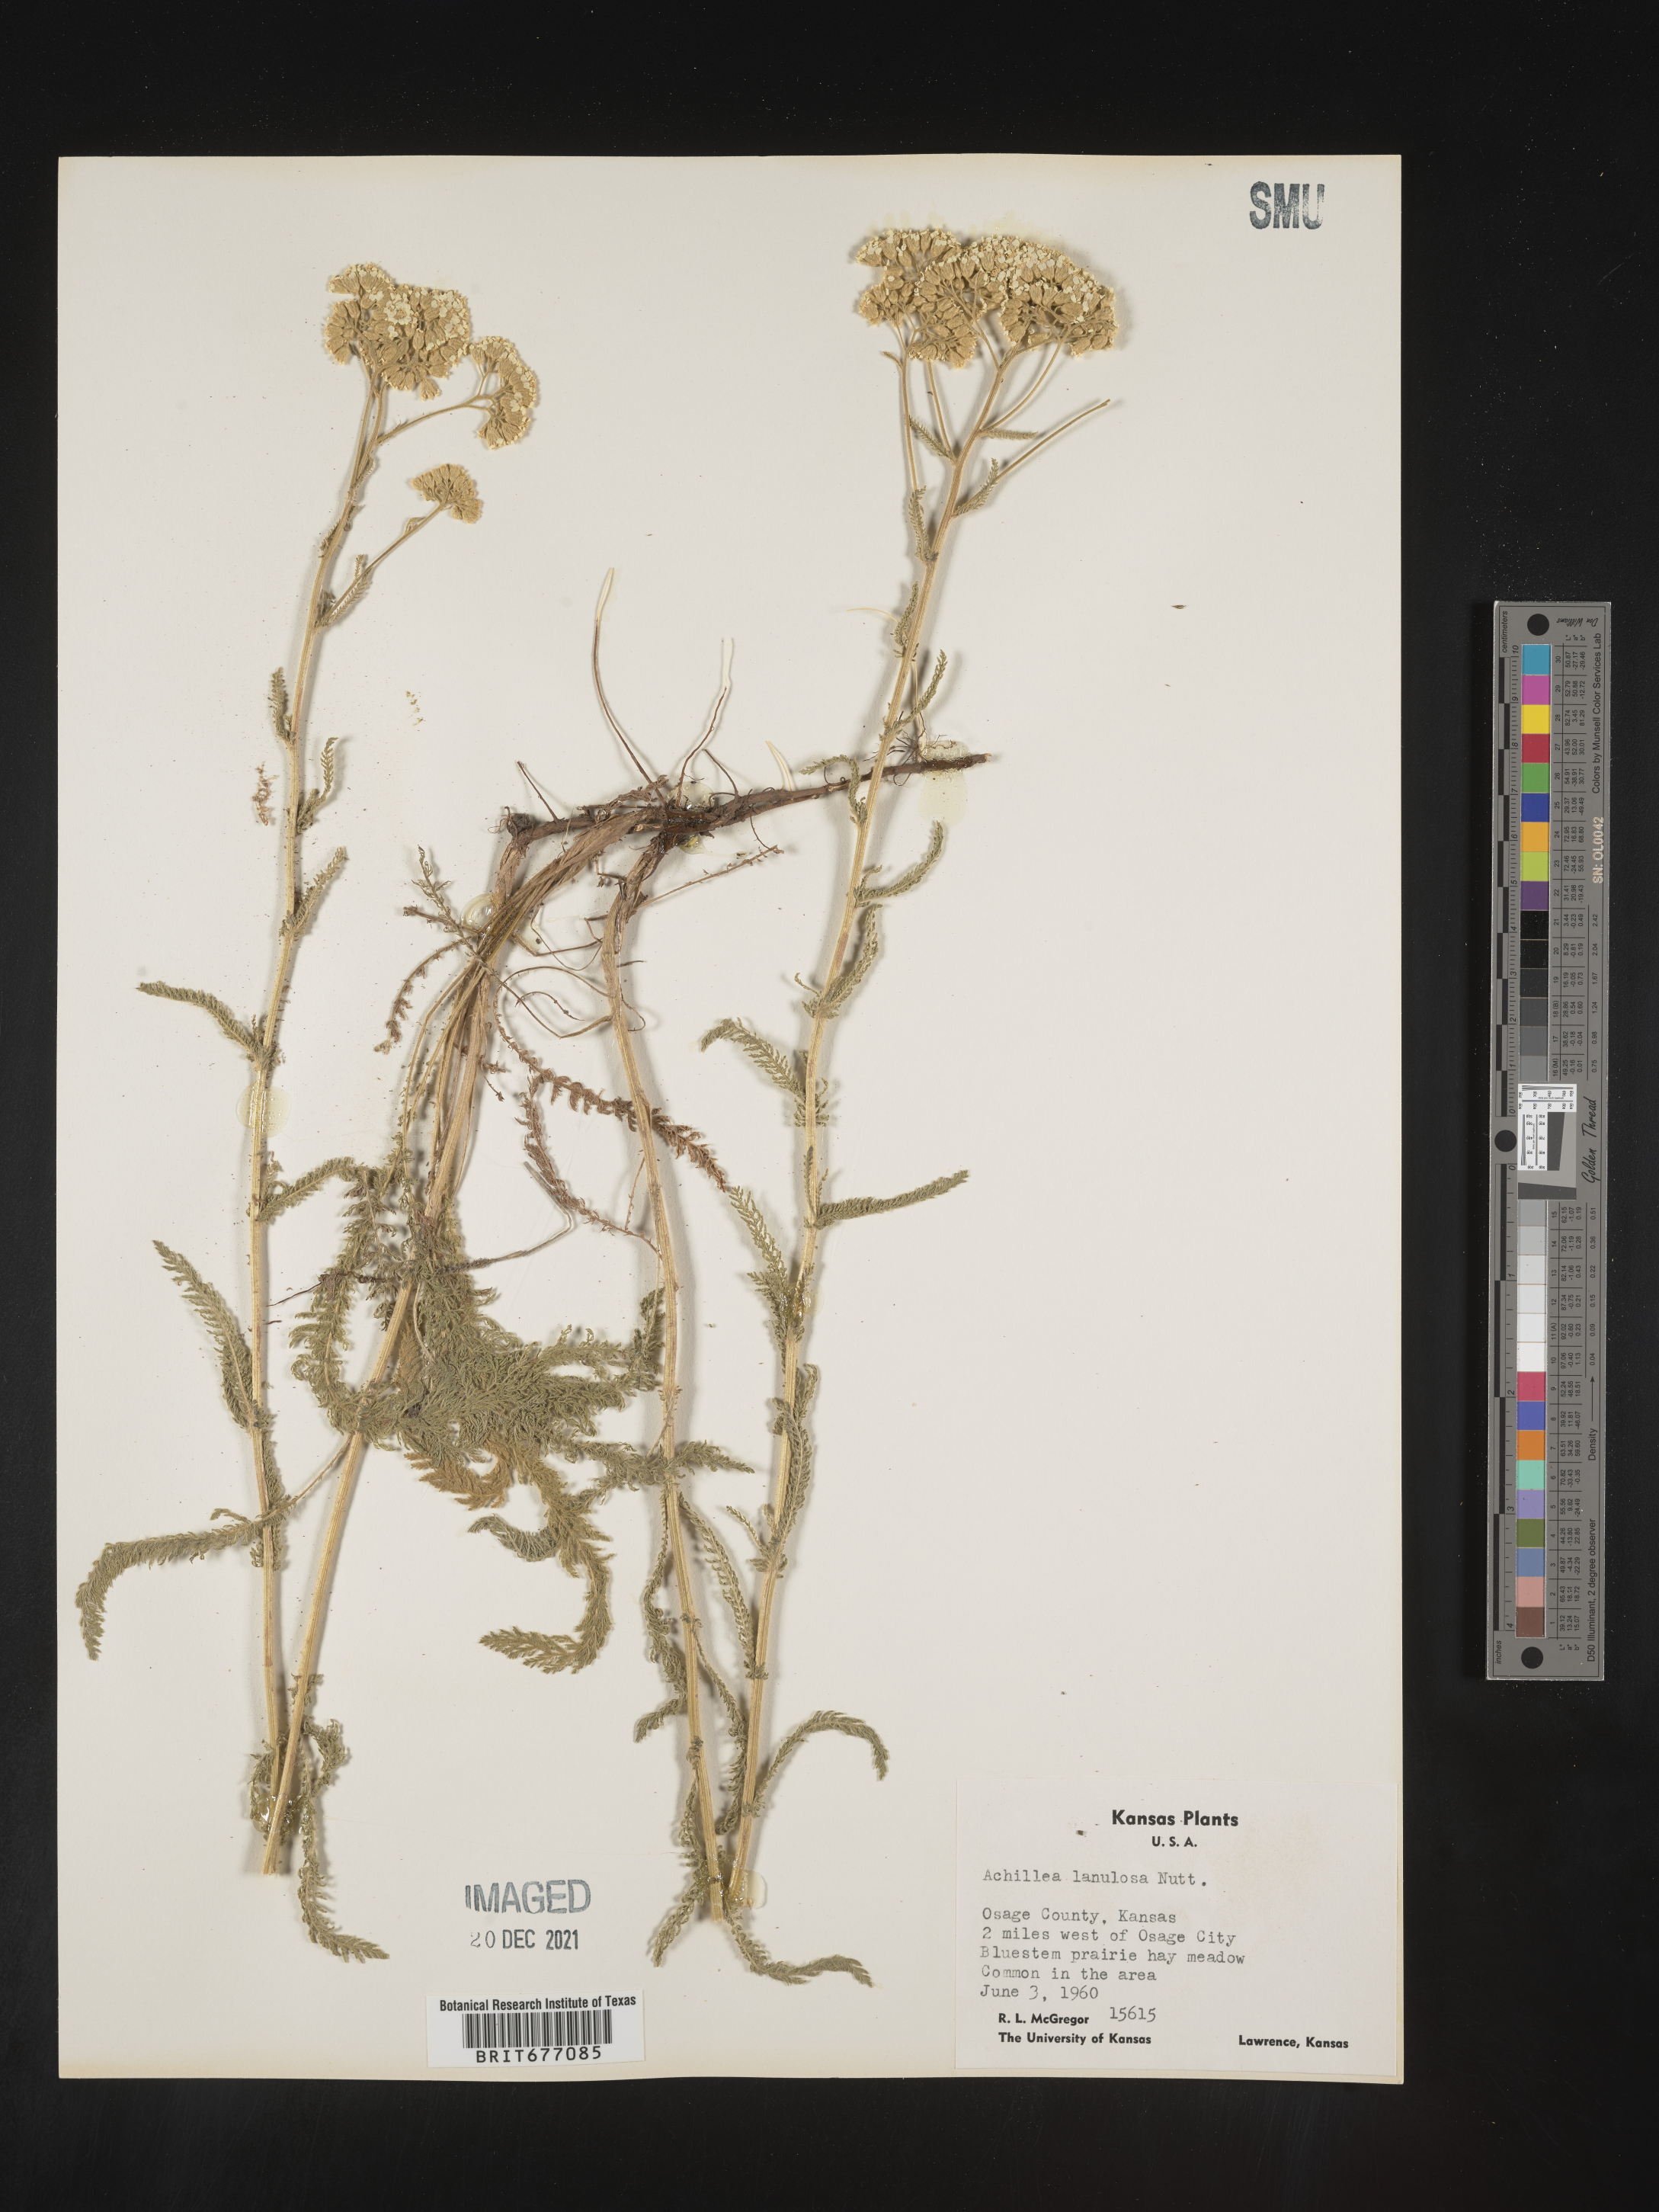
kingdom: Plantae
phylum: Tracheophyta
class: Magnoliopsida
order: Asterales
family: Asteraceae
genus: Achillea
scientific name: Achillea millefolium
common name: Yarrow
